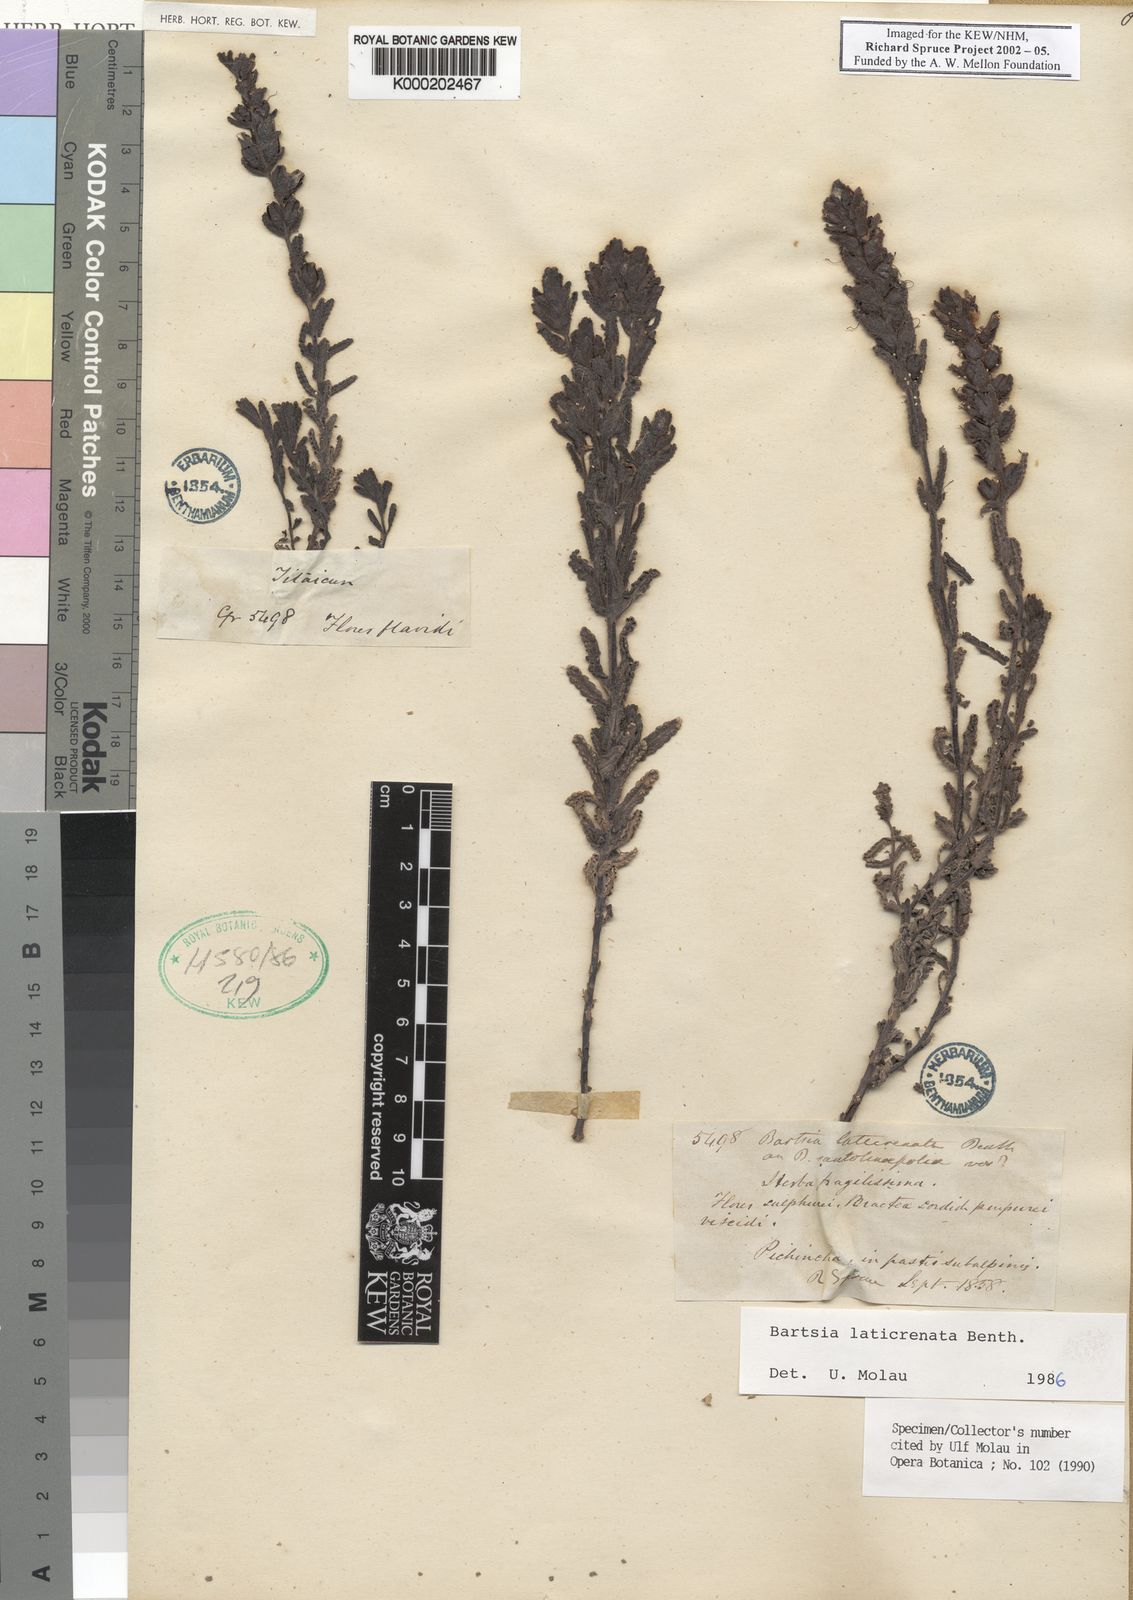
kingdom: Plantae
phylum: Tracheophyta
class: Magnoliopsida
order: Lamiales
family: Orobanchaceae
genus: Neobartsia
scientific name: Neobartsia laticrenata
